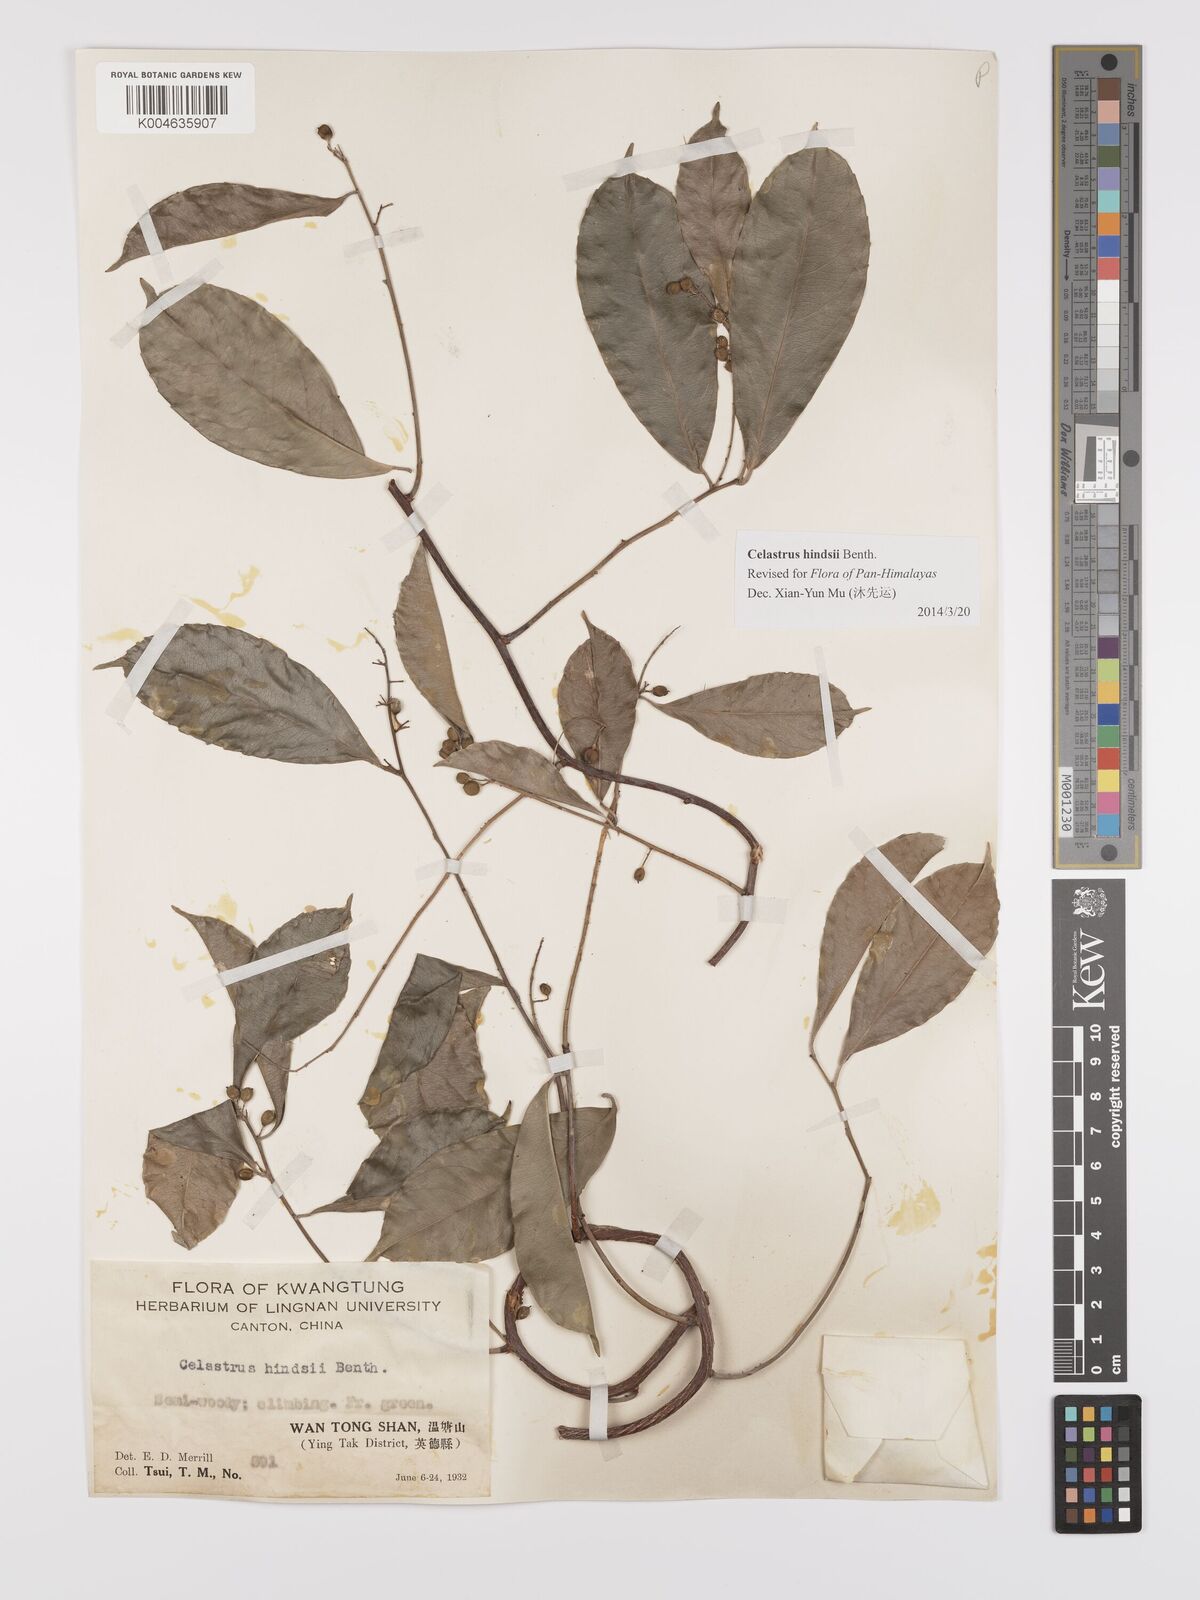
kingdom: Plantae
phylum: Tracheophyta
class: Magnoliopsida
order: Celastrales
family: Celastraceae
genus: Celastrus
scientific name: Celastrus hindsii
